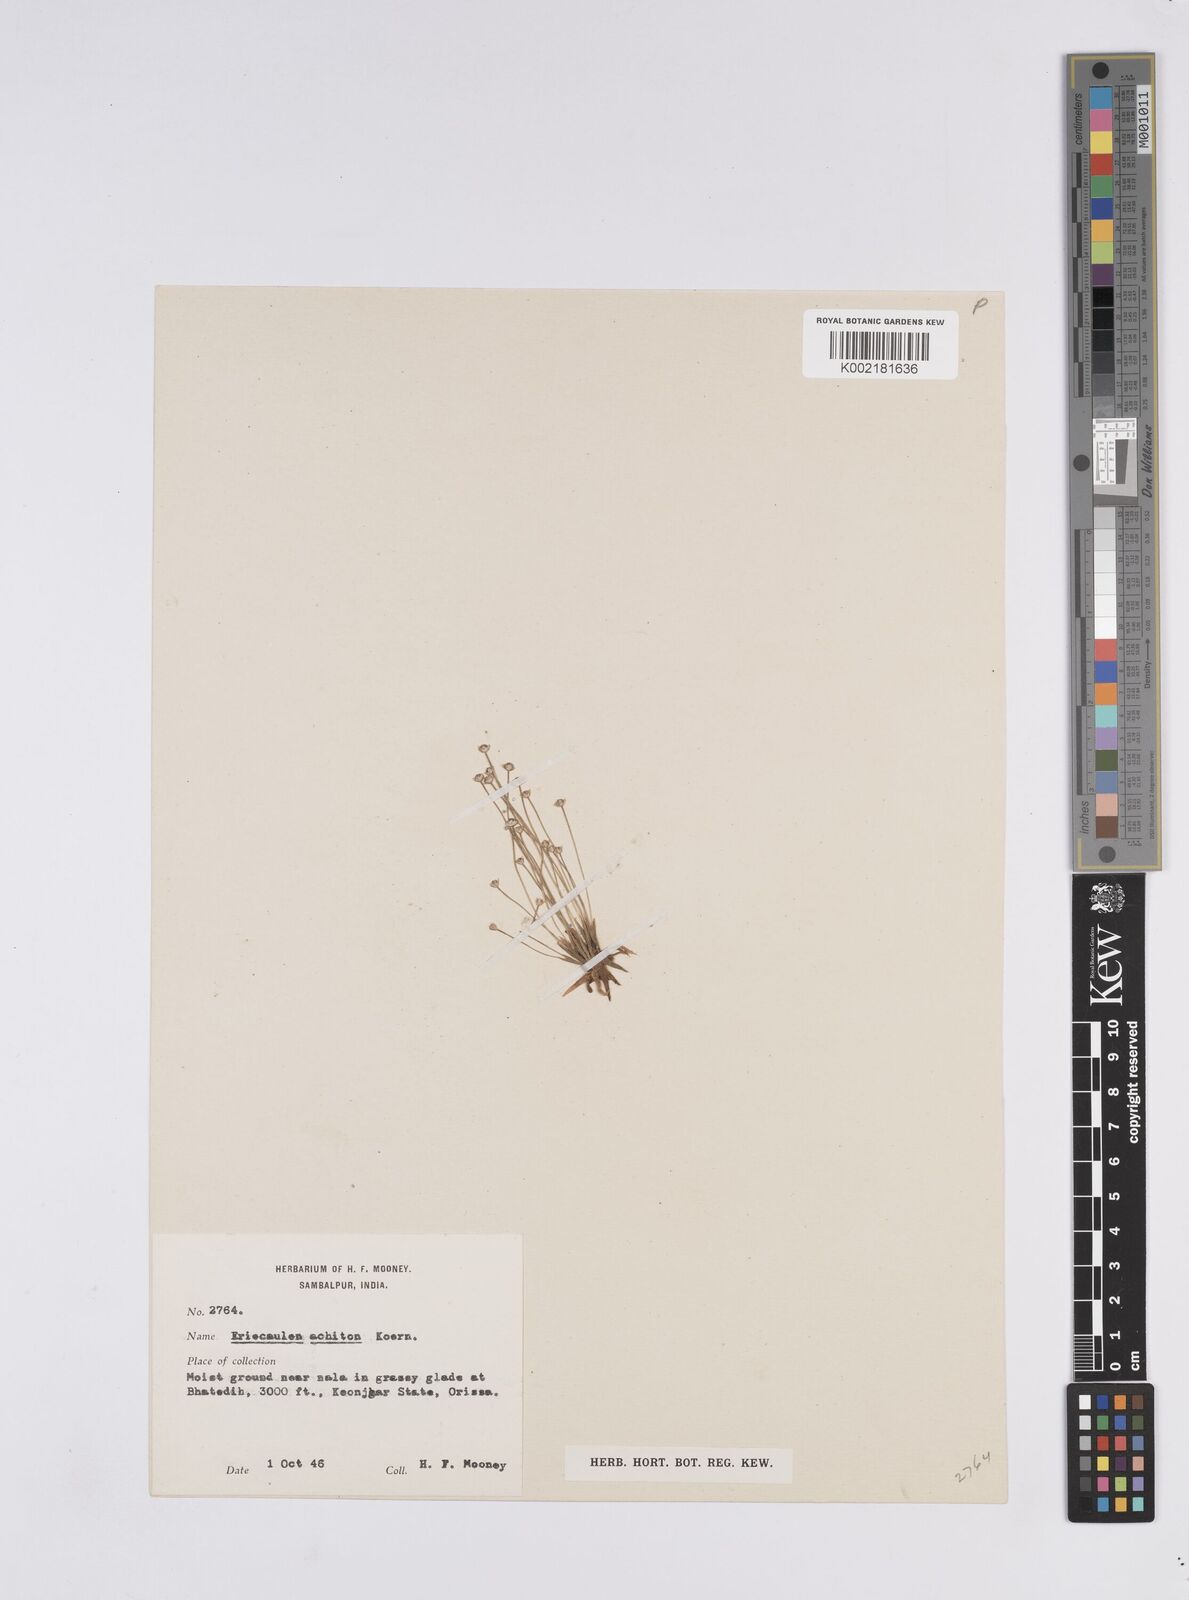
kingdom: Plantae
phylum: Tracheophyta
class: Liliopsida
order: Poales
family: Eriocaulaceae
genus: Eriocaulon
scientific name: Eriocaulon achiton
